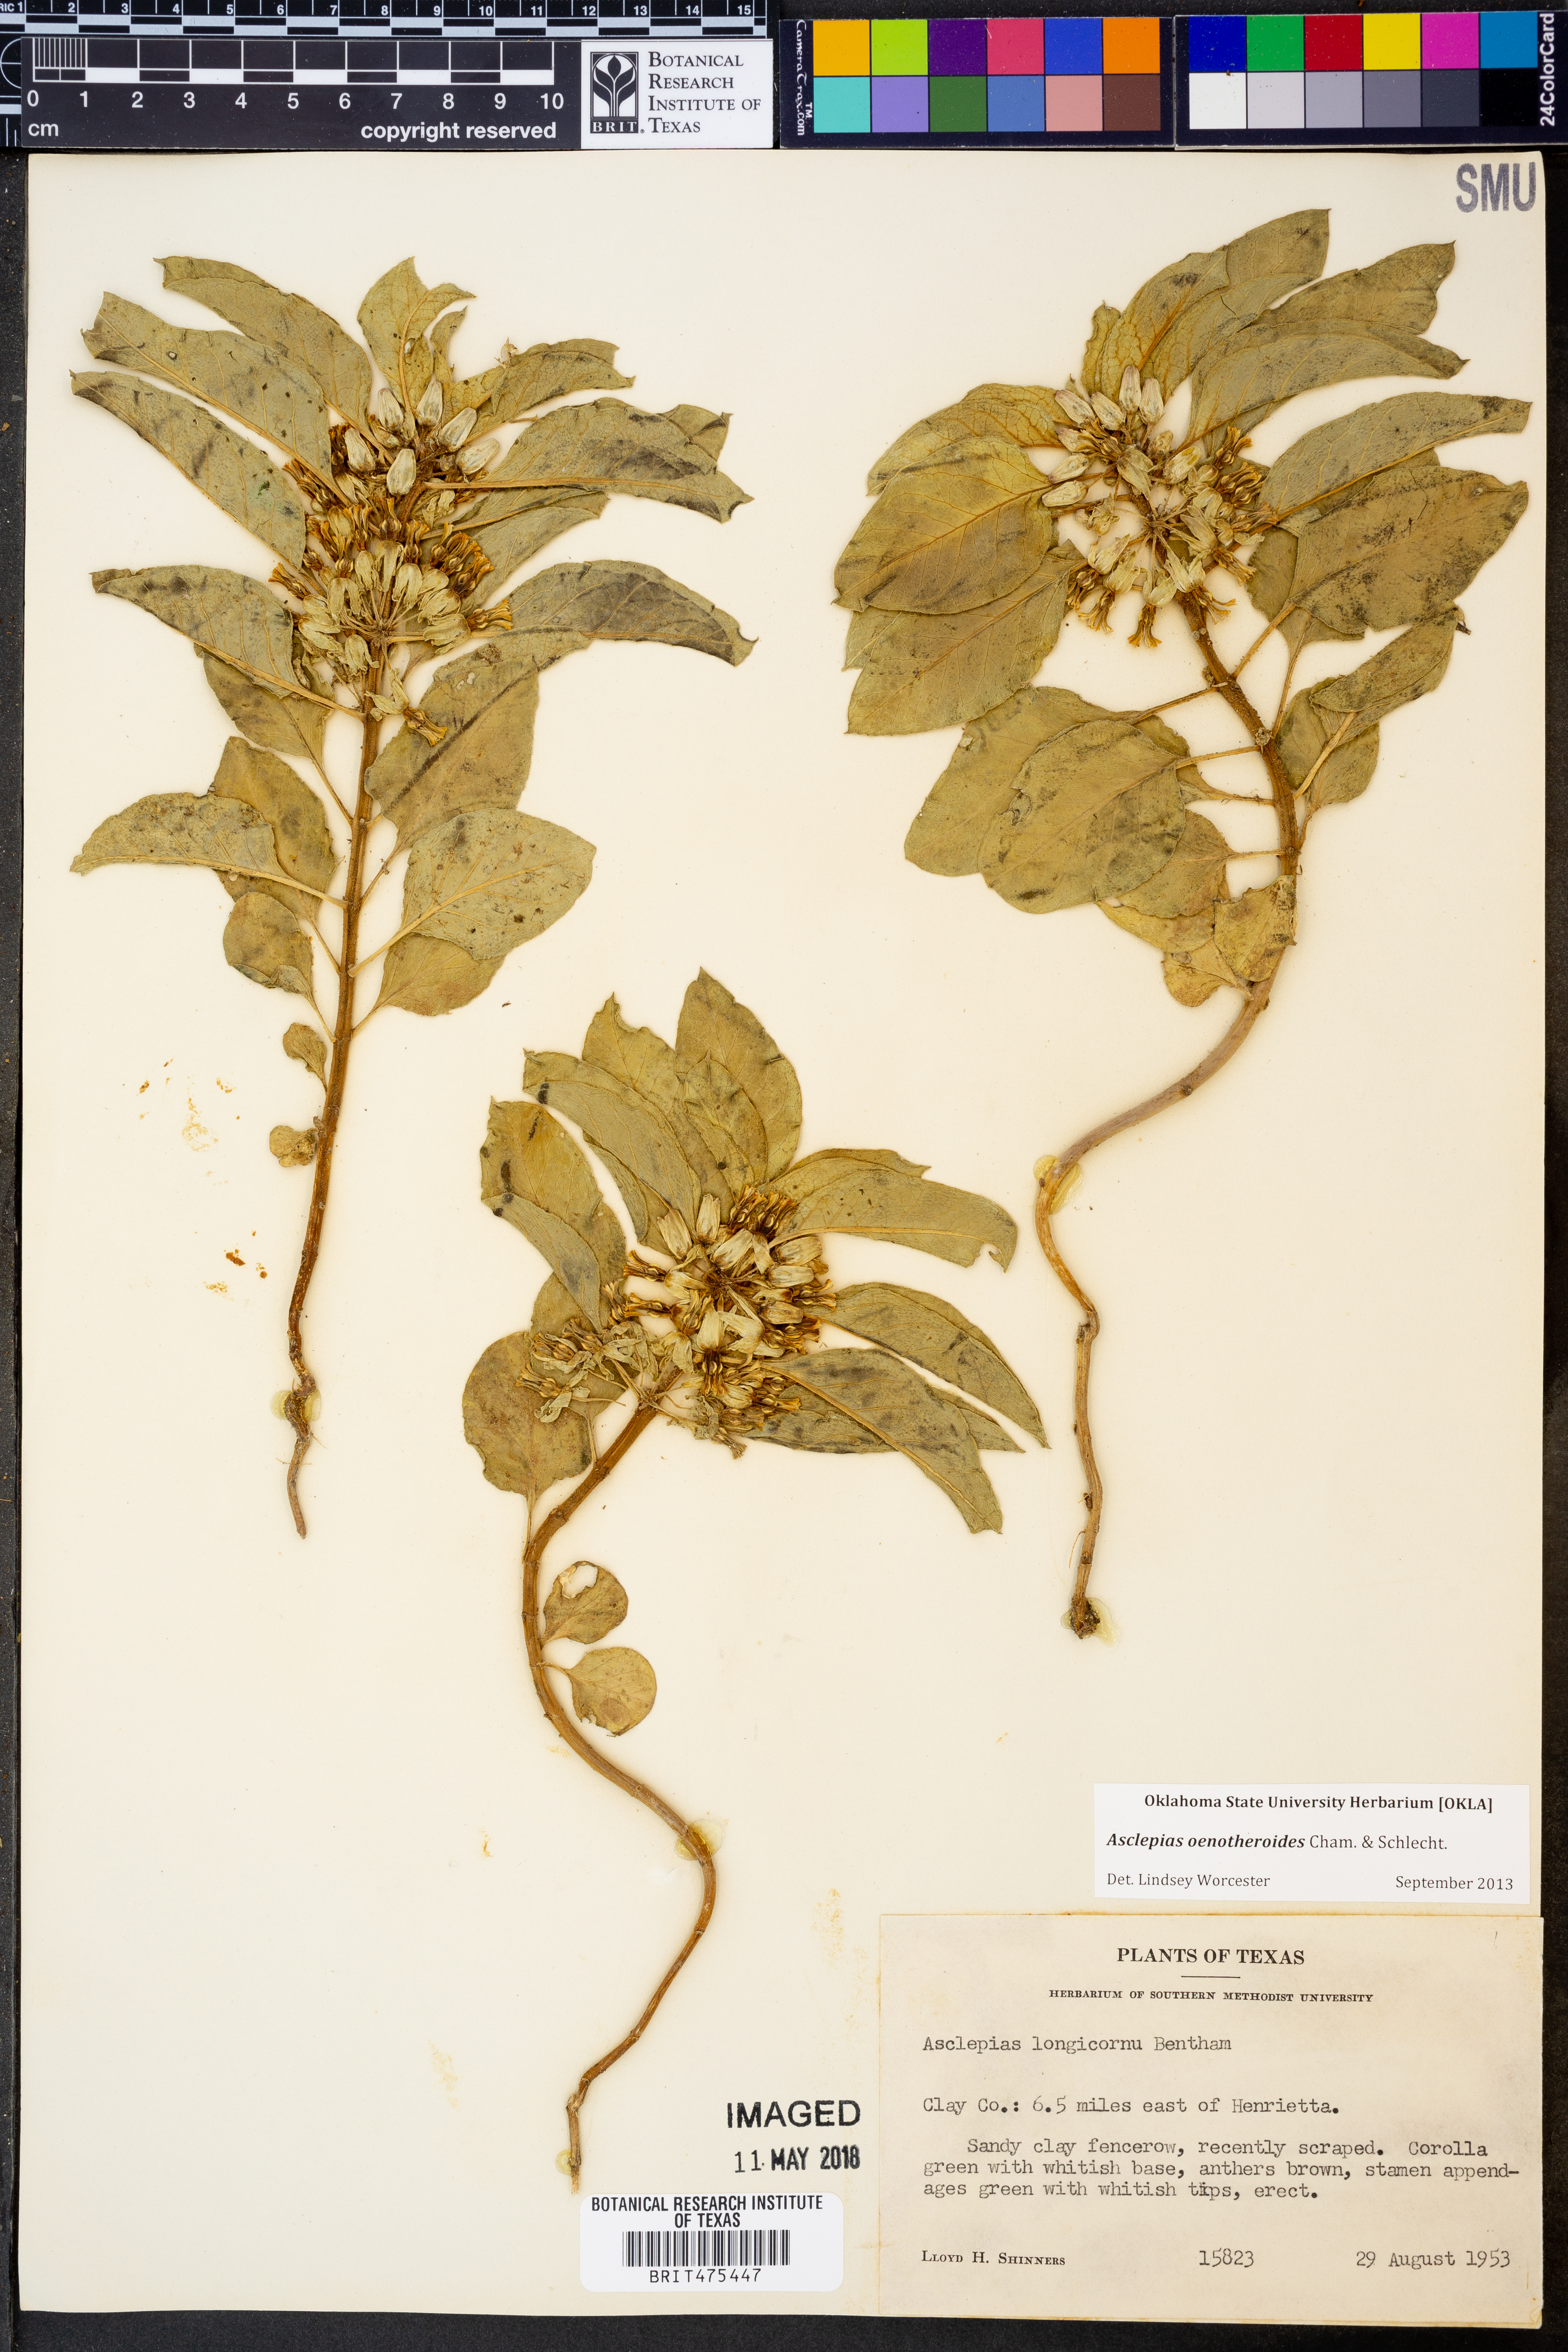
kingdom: Plantae
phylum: Tracheophyta
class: Magnoliopsida
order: Gentianales
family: Apocynaceae
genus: Asclepias
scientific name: Asclepias oenotheroides
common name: Zizotes milkweed
